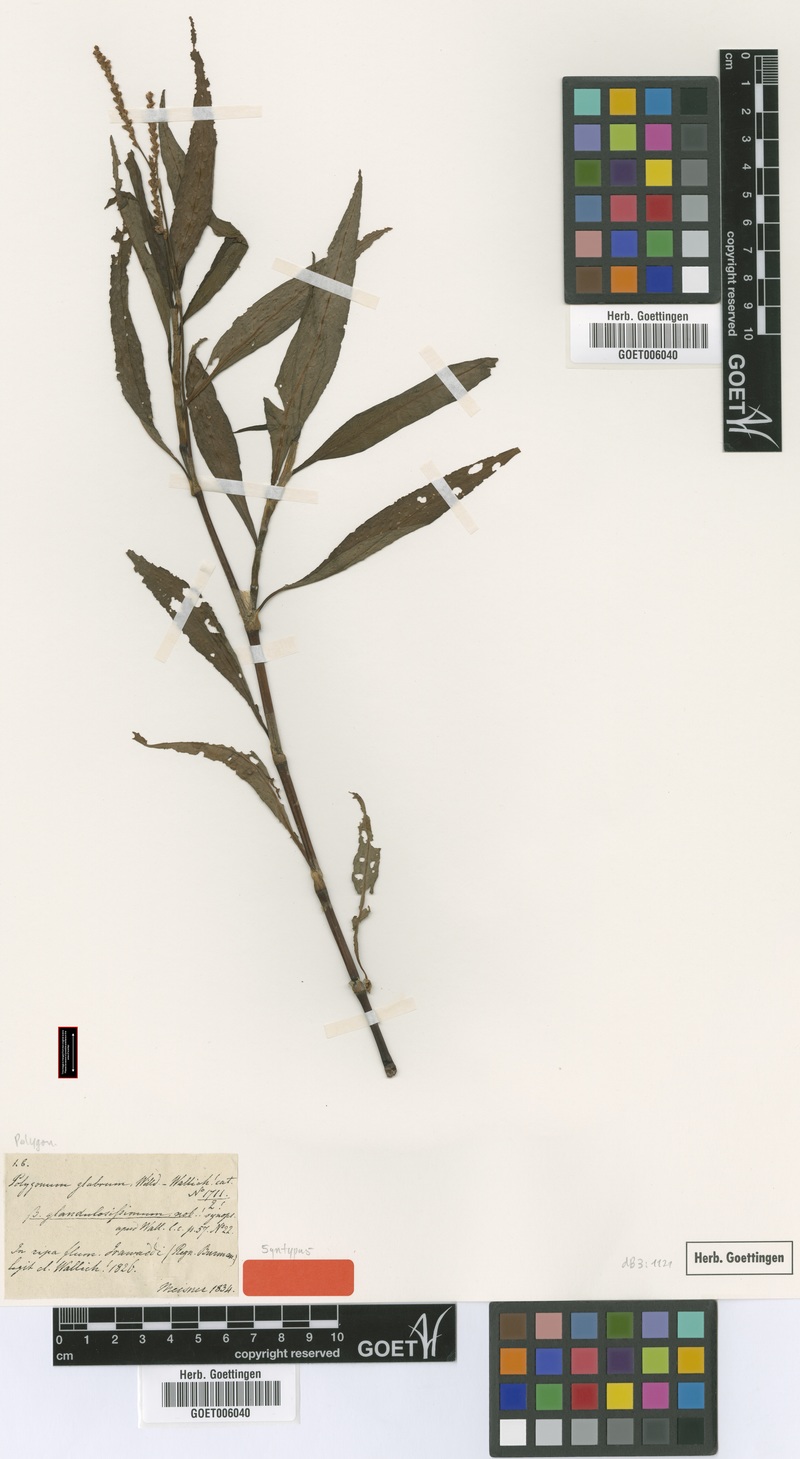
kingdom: Plantae
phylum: Tracheophyta
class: Magnoliopsida
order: Caryophyllales
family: Polygonaceae
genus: Persicaria
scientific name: Persicaria glabra
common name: Denseflower knotweed
